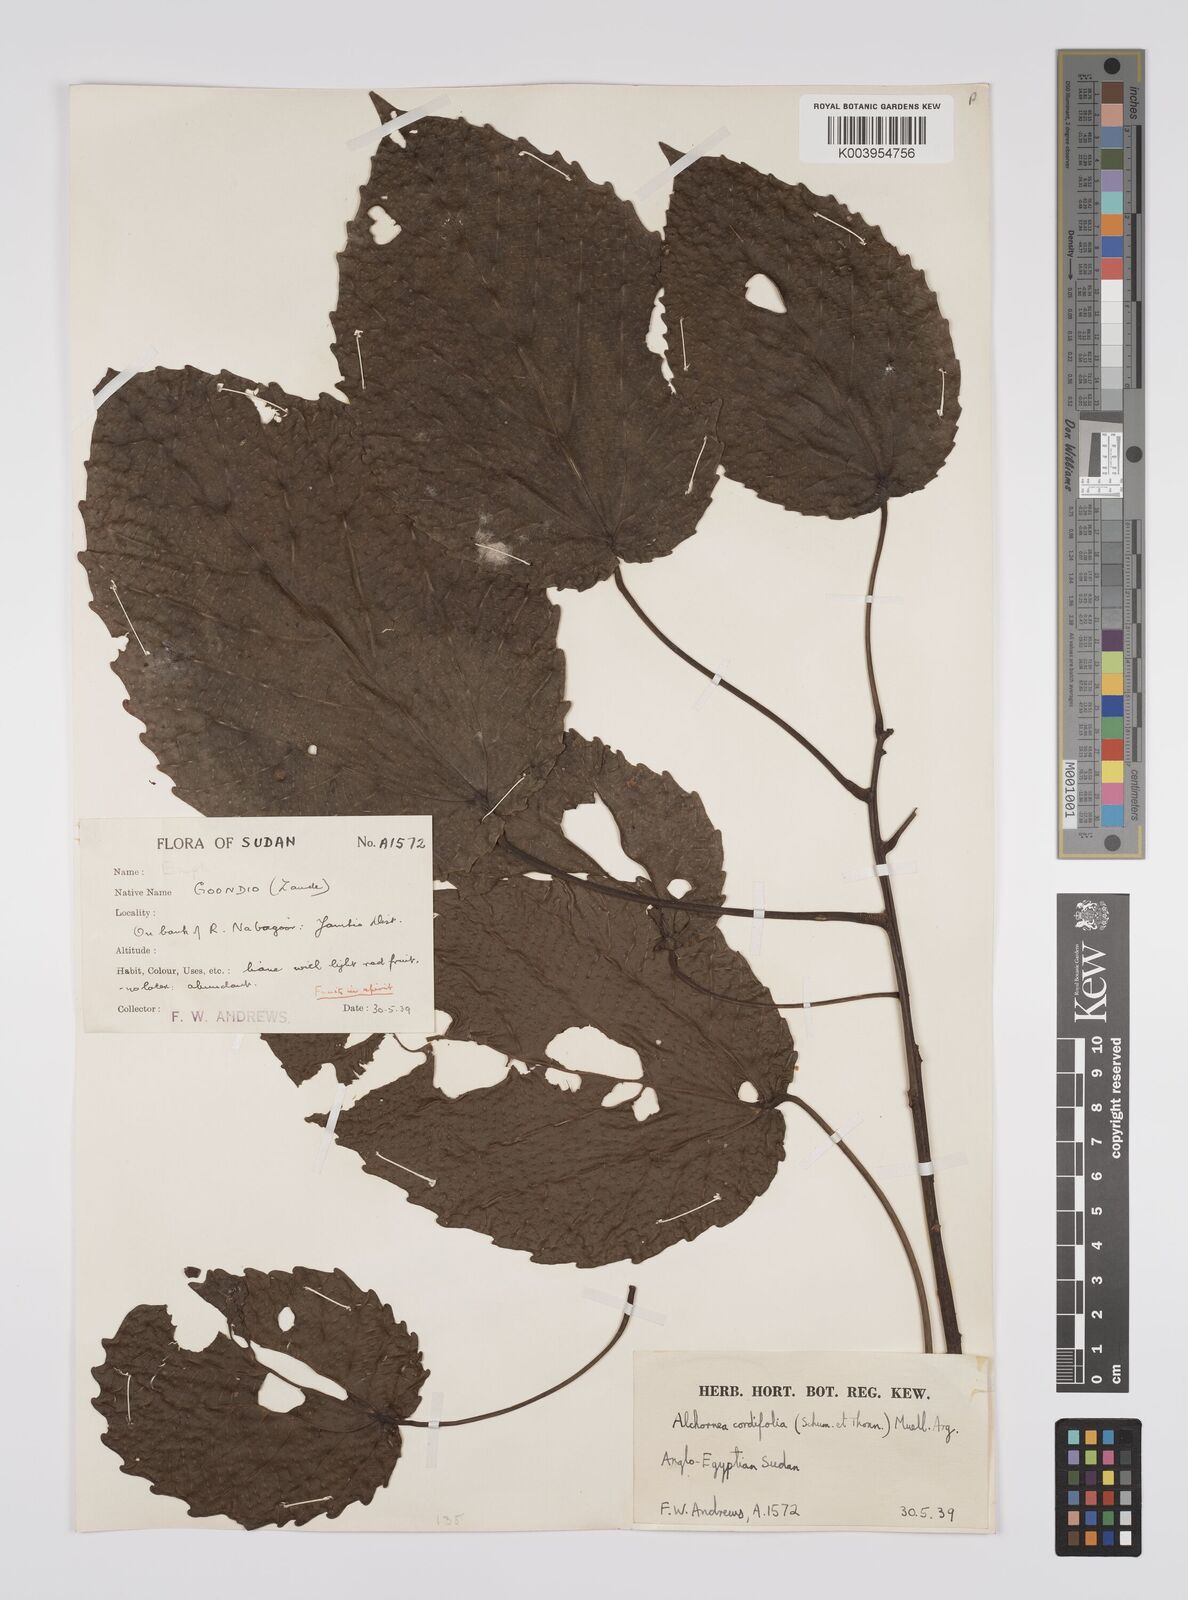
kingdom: Plantae
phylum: Tracheophyta
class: Magnoliopsida
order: Malpighiales
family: Euphorbiaceae
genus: Alchornea
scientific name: Alchornea cordifolia
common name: Christmasbush
